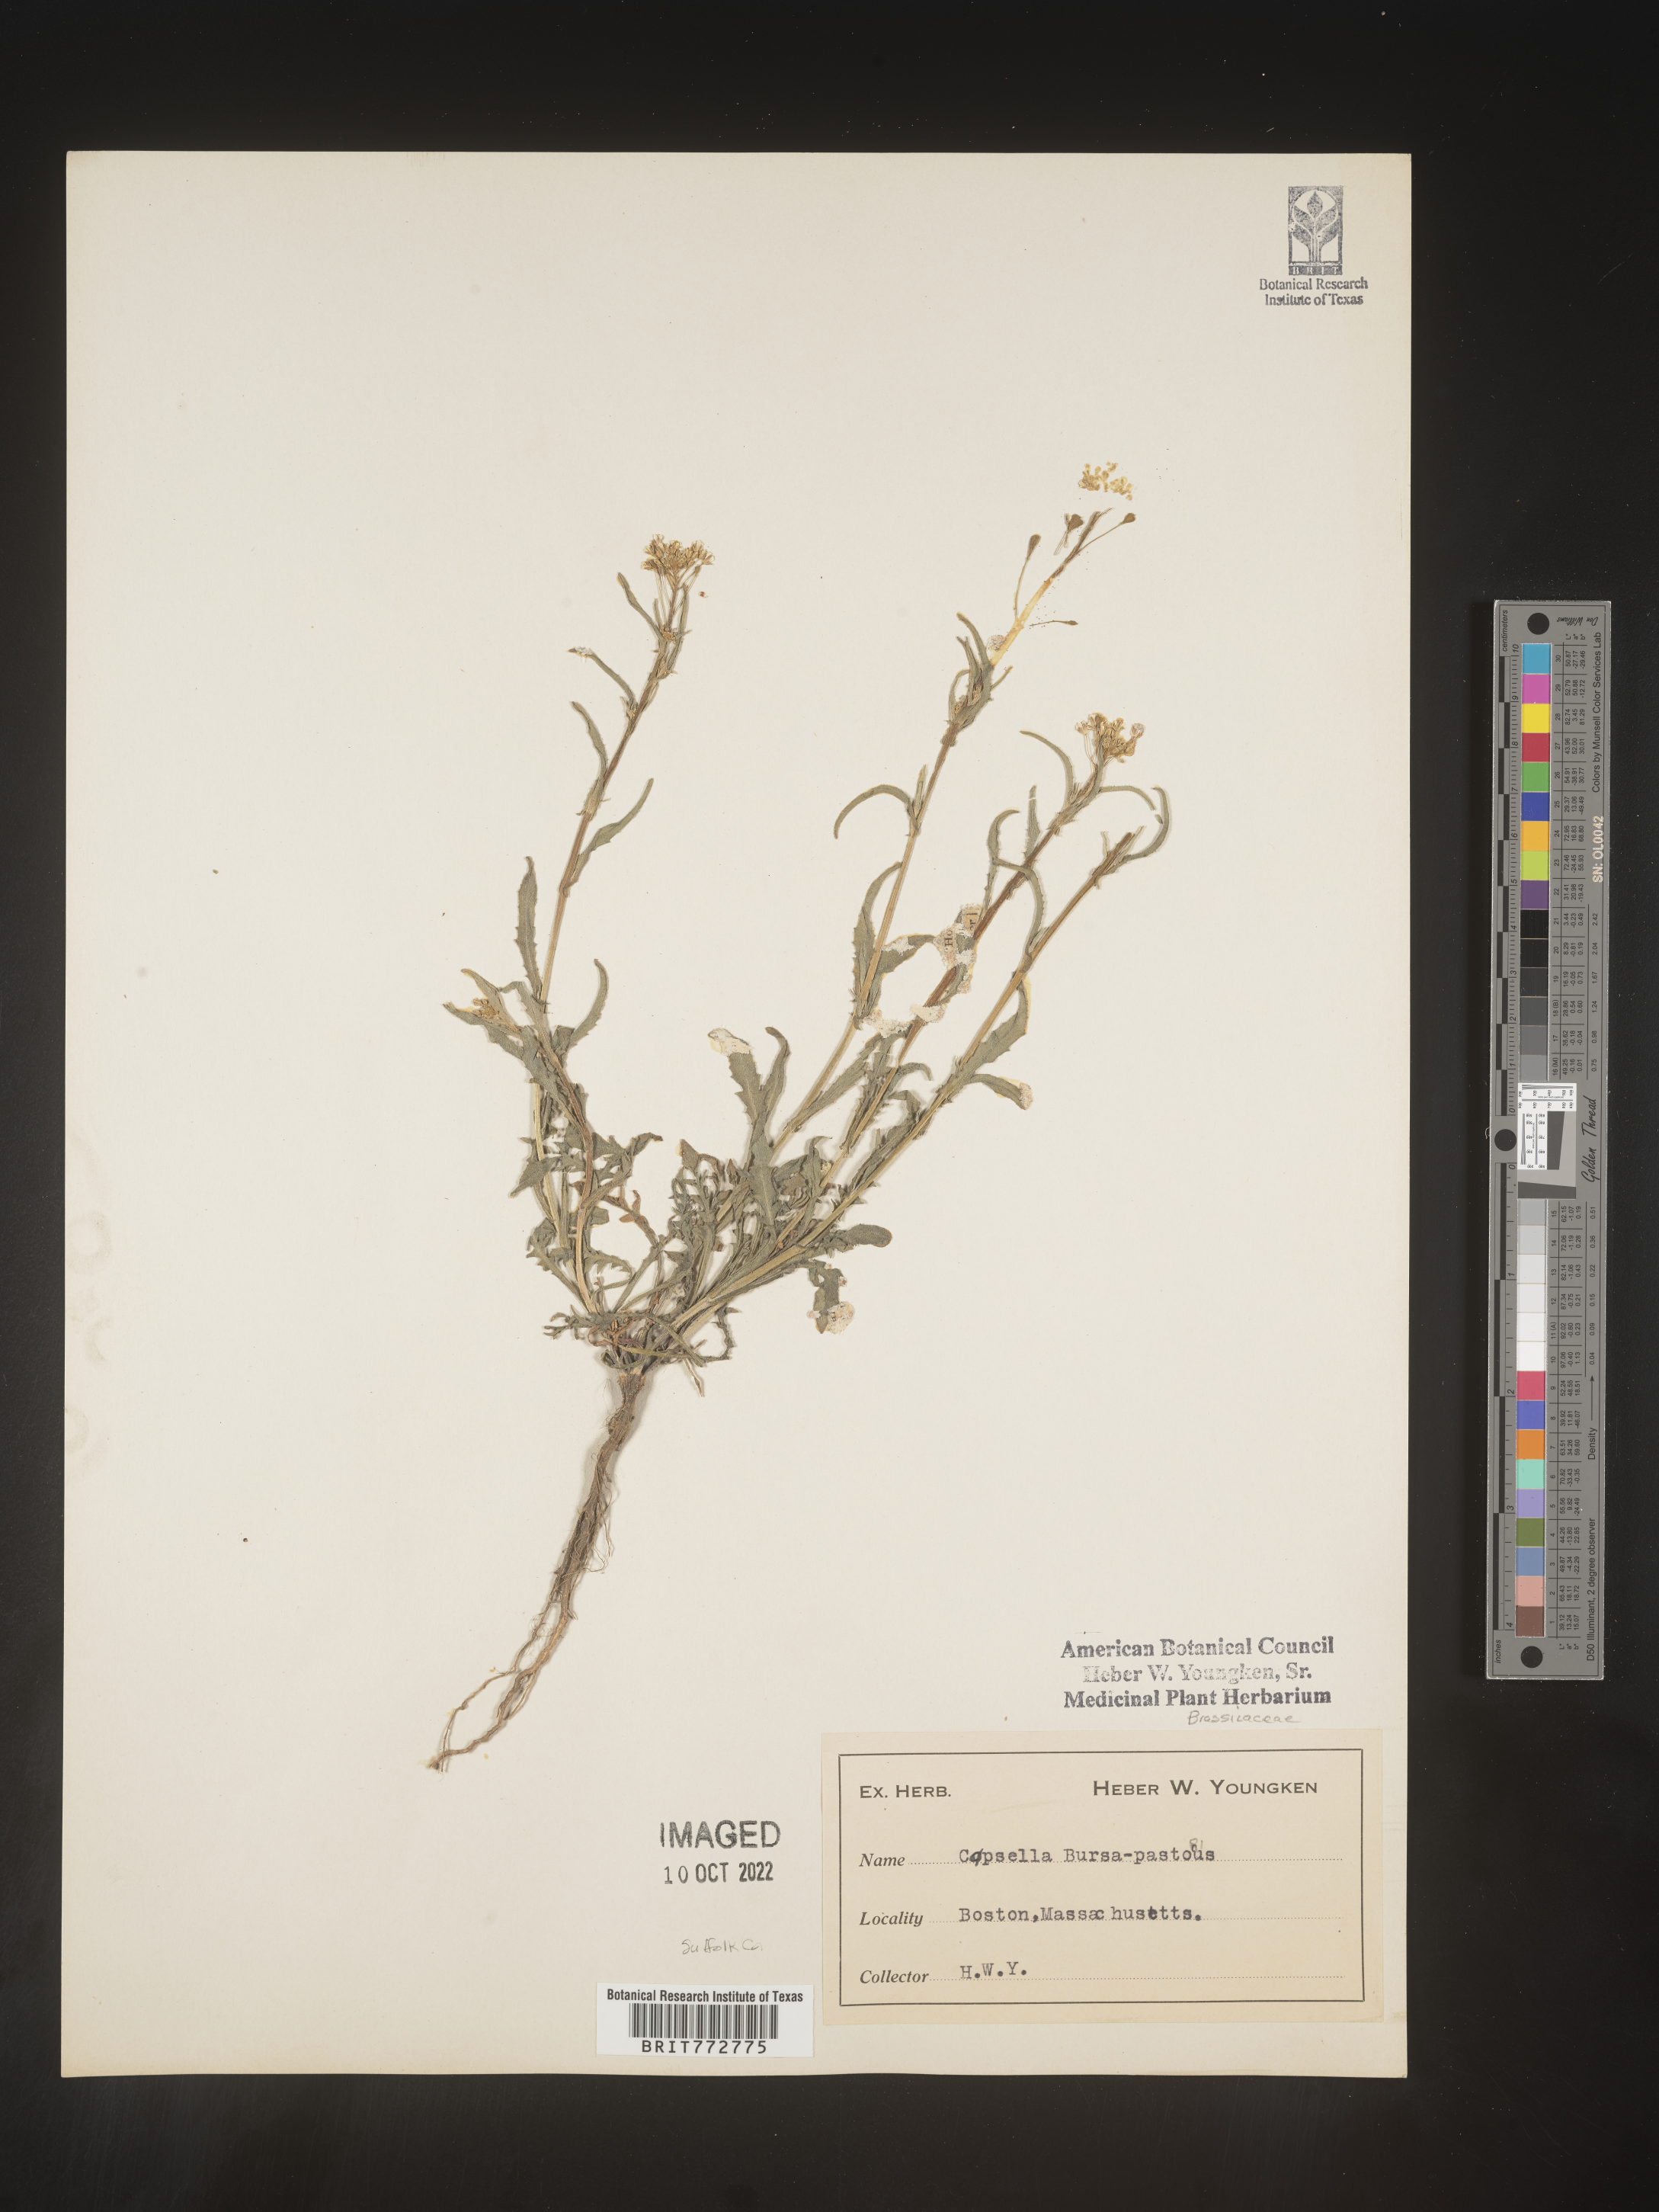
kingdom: Plantae
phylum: Tracheophyta
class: Magnoliopsida
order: Brassicales
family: Brassicaceae
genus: Capsella
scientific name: Capsella bursa-pastoris
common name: Shepherd's purse
